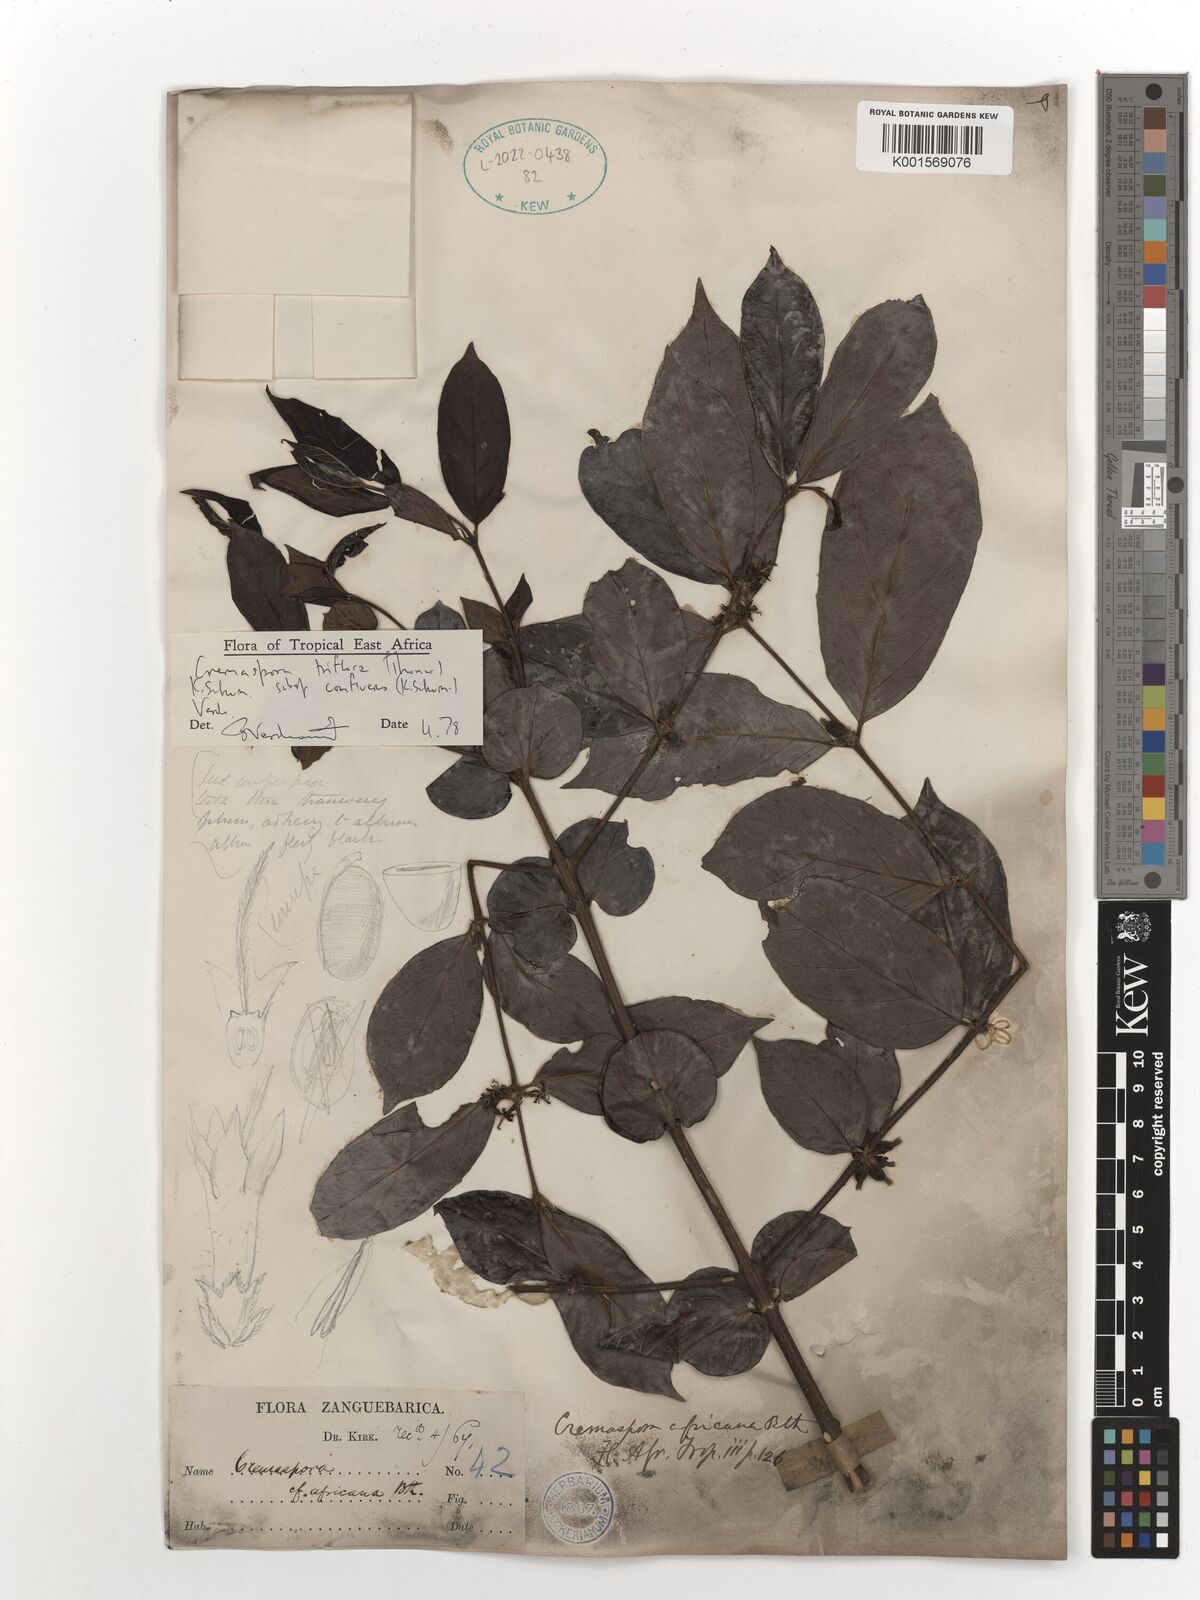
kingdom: Plantae
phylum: Tracheophyta
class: Magnoliopsida
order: Gentianales
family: Rubiaceae
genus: Cremaspora
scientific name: Cremaspora triflora
